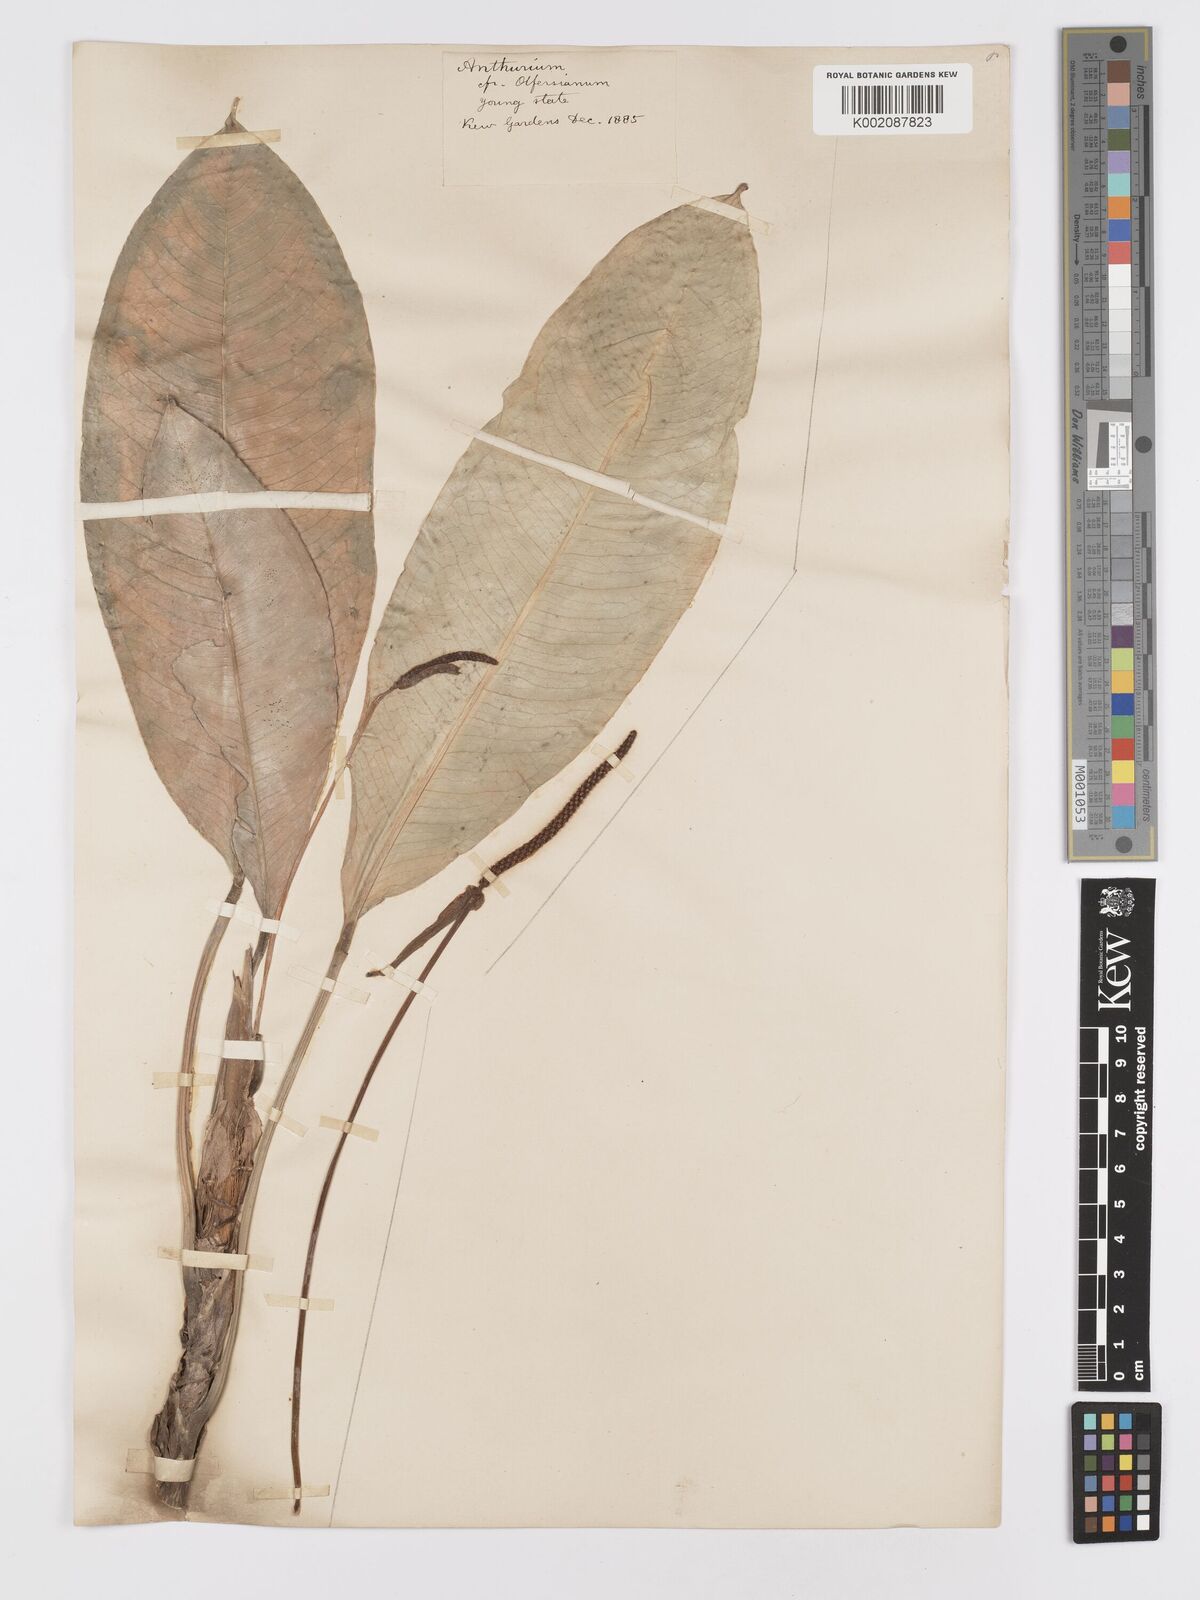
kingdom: Plantae
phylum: Tracheophyta
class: Liliopsida
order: Alismatales
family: Araceae
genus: Anthurium
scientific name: Anthurium parasiticum
